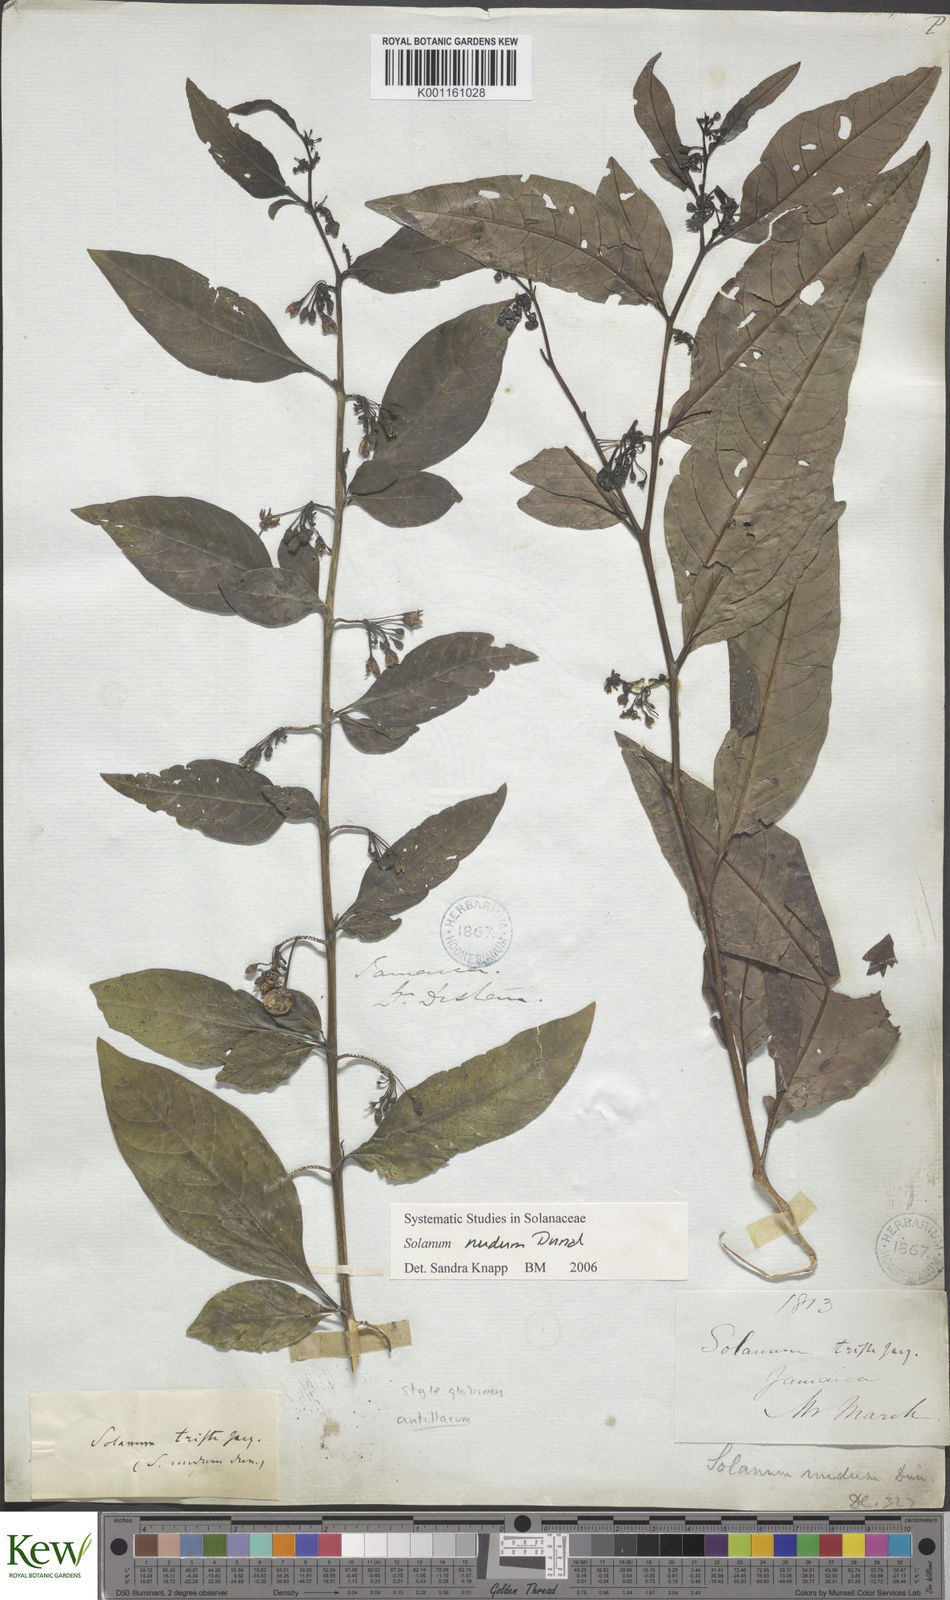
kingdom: Plantae
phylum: Tracheophyta
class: Magnoliopsida
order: Solanales
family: Solanaceae
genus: Solanum
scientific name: Solanum nudum
